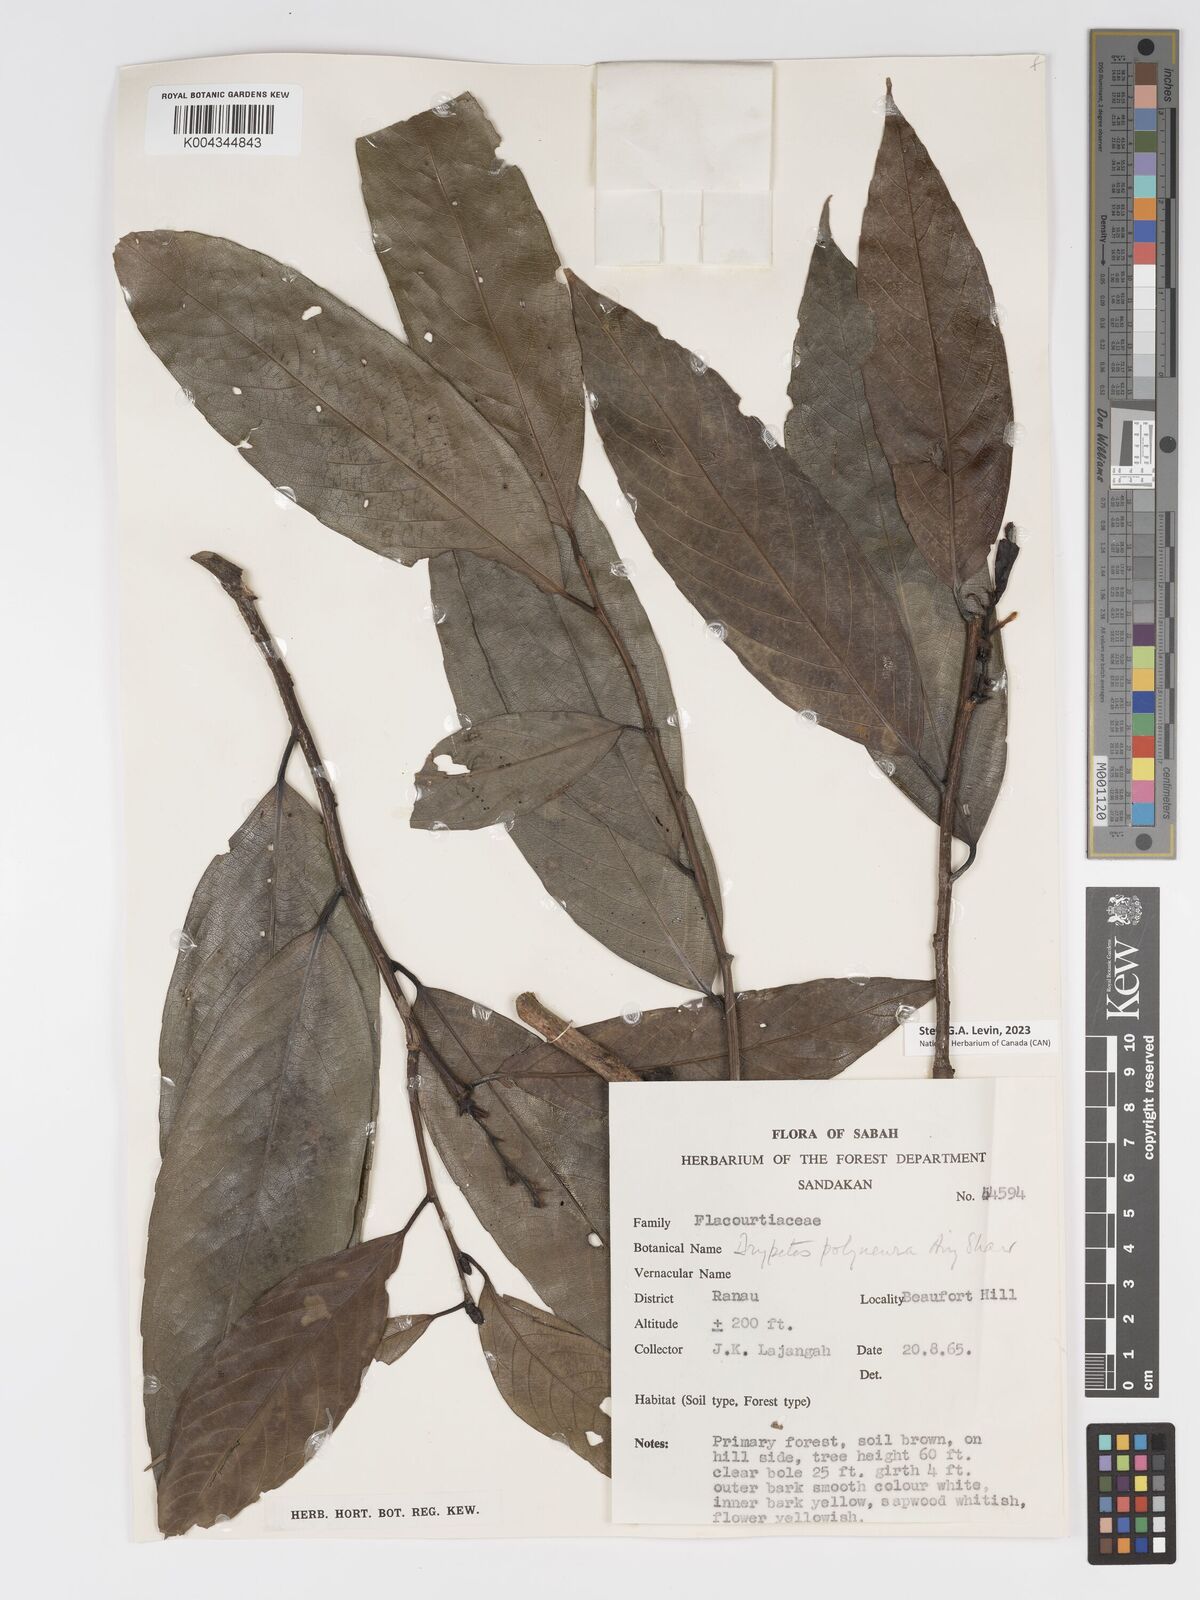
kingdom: Plantae
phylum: Tracheophyta
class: Magnoliopsida
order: Malpighiales
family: Putranjivaceae
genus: Drypetes
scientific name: Drypetes polyneura
